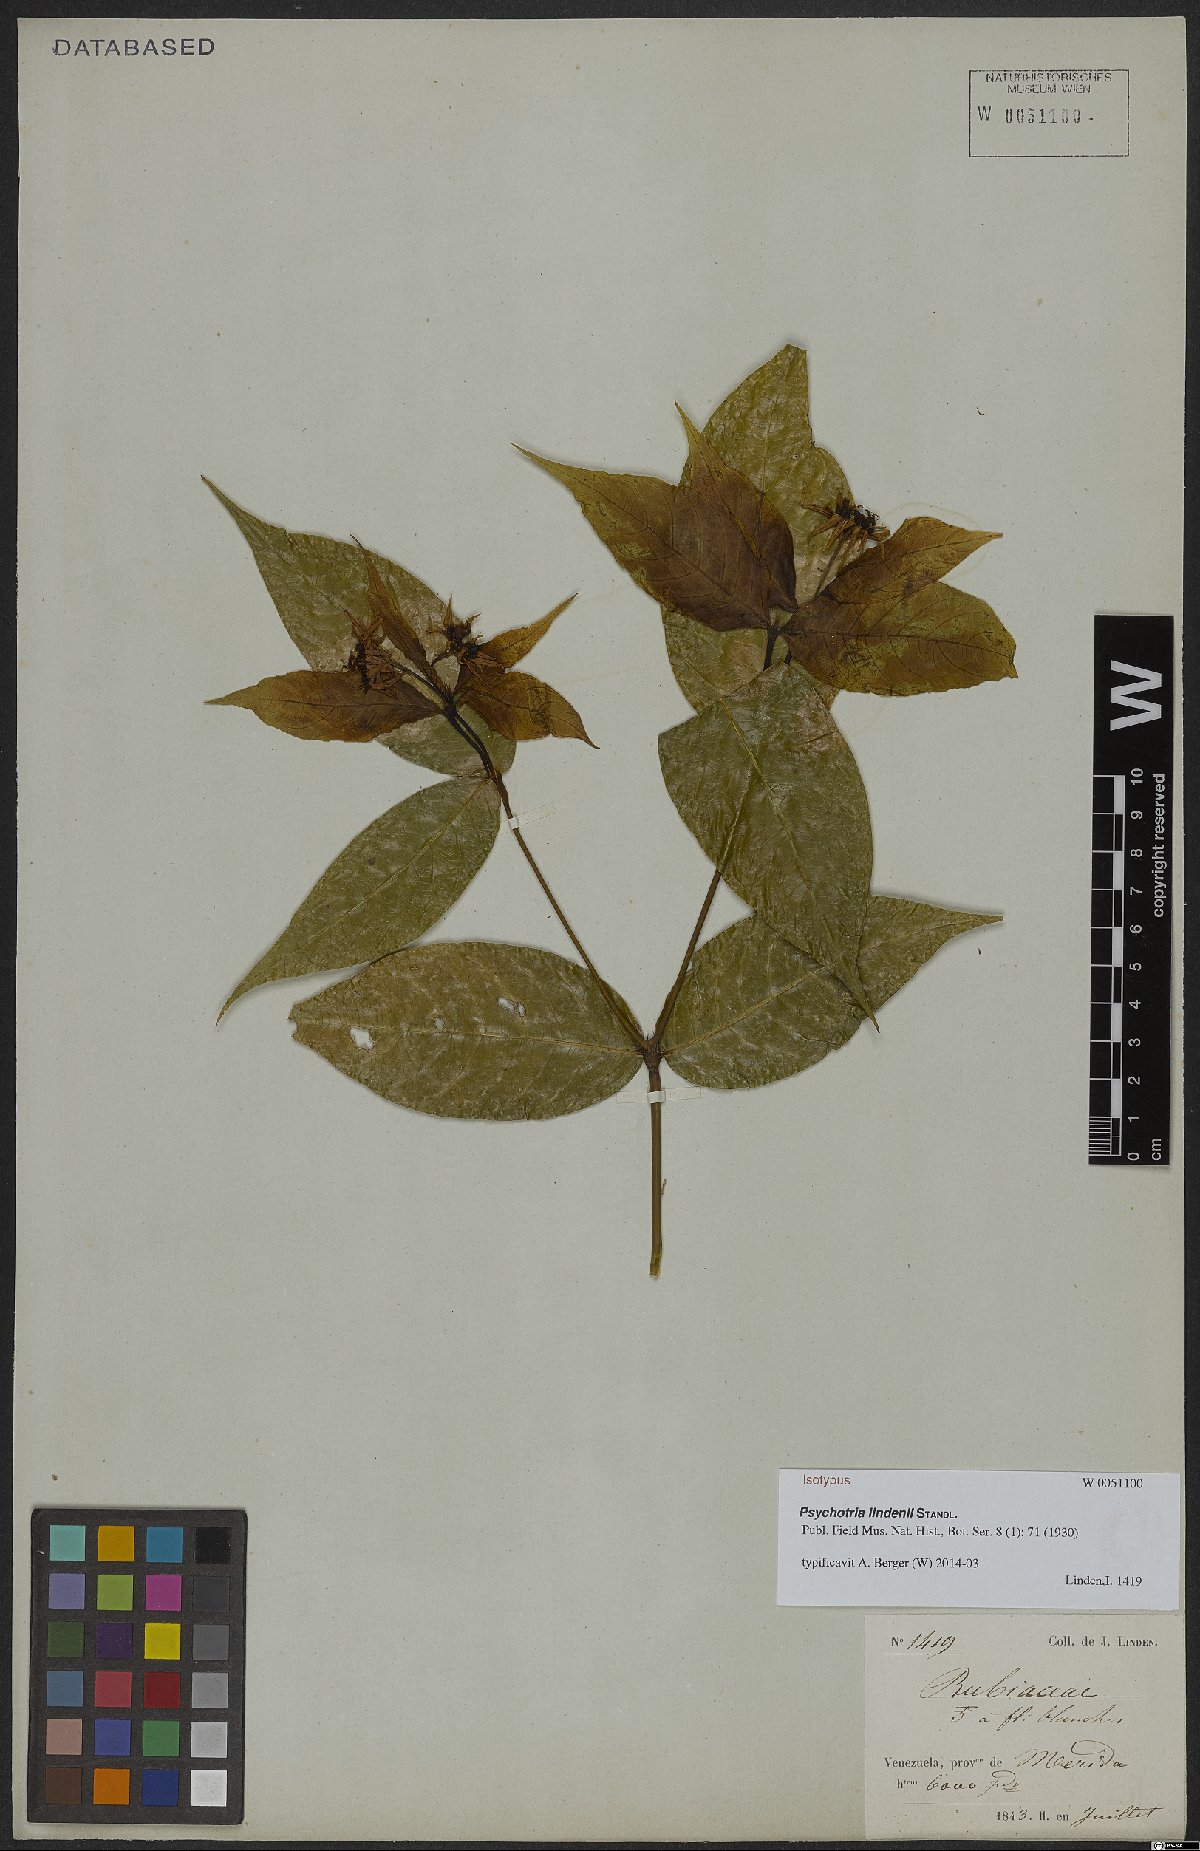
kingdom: Plantae
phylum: Tracheophyta
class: Magnoliopsida
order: Gentianales
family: Rubiaceae
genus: Palicourea
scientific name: Palicourea raveniana
